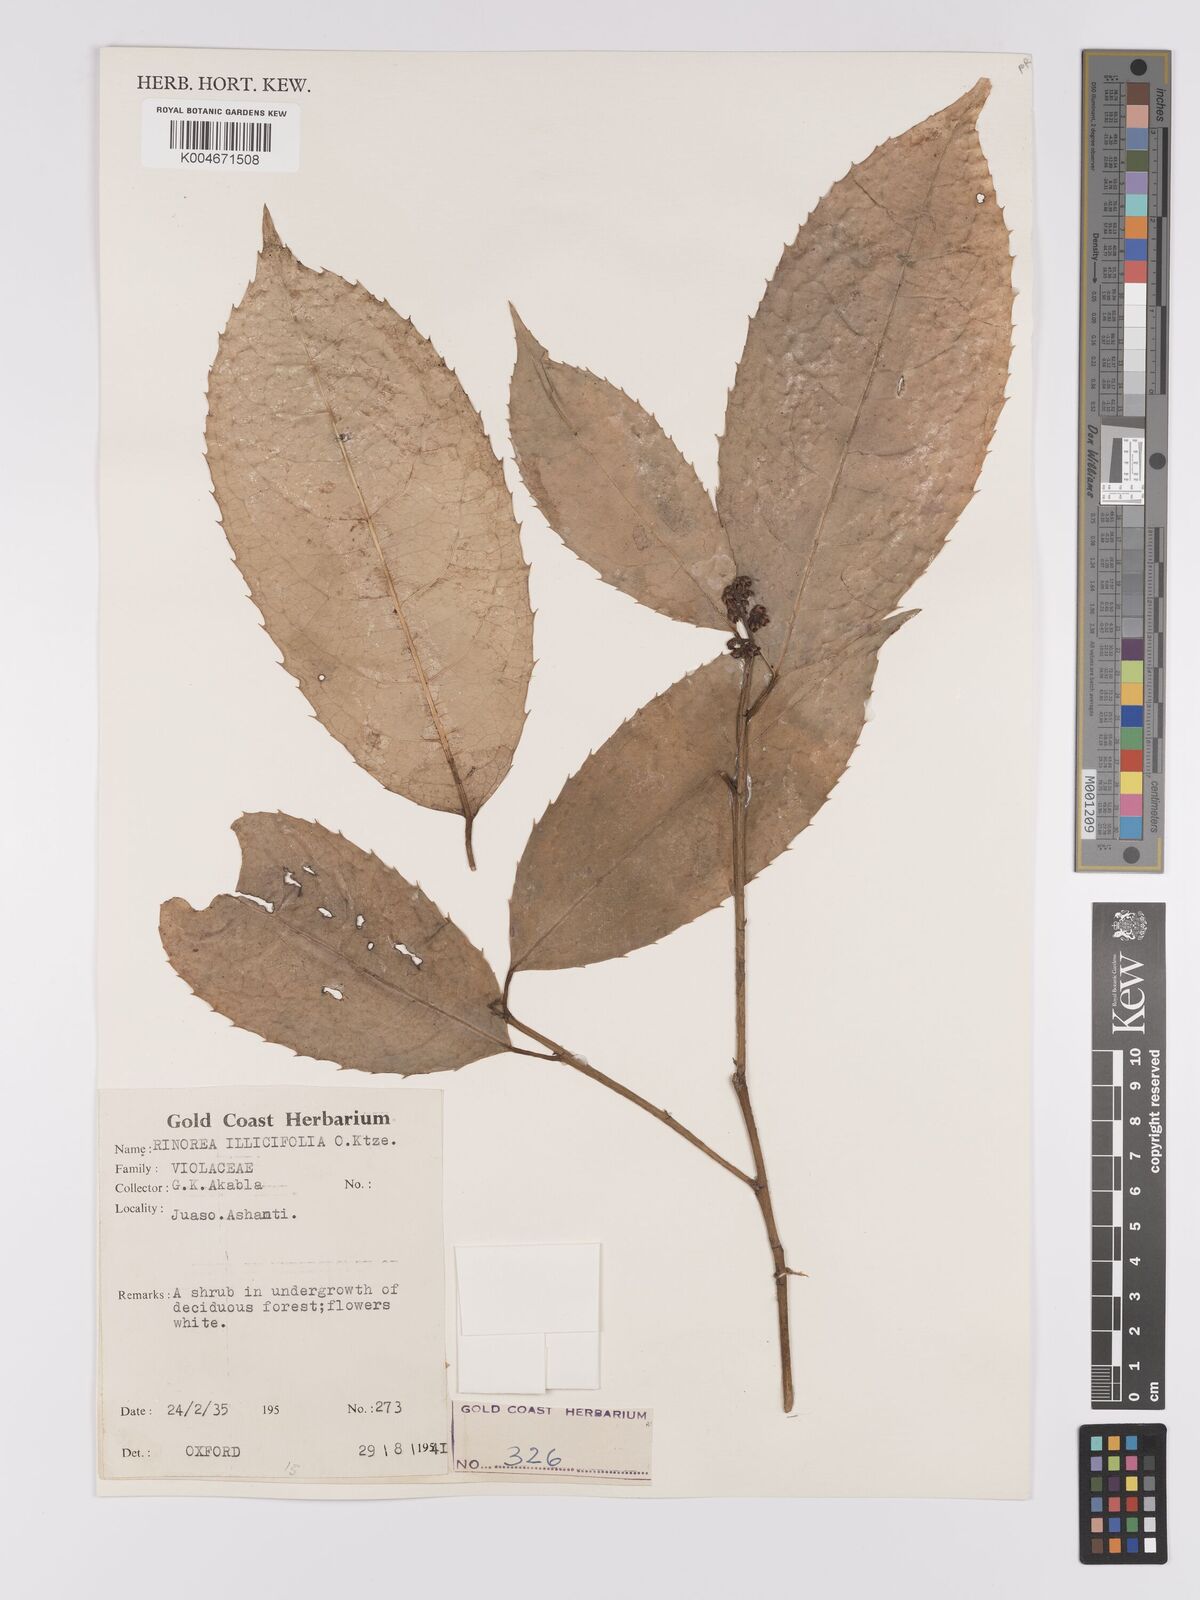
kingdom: Plantae
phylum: Tracheophyta
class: Magnoliopsida
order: Malpighiales
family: Violaceae
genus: Rinorea
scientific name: Rinorea ilicifolia
